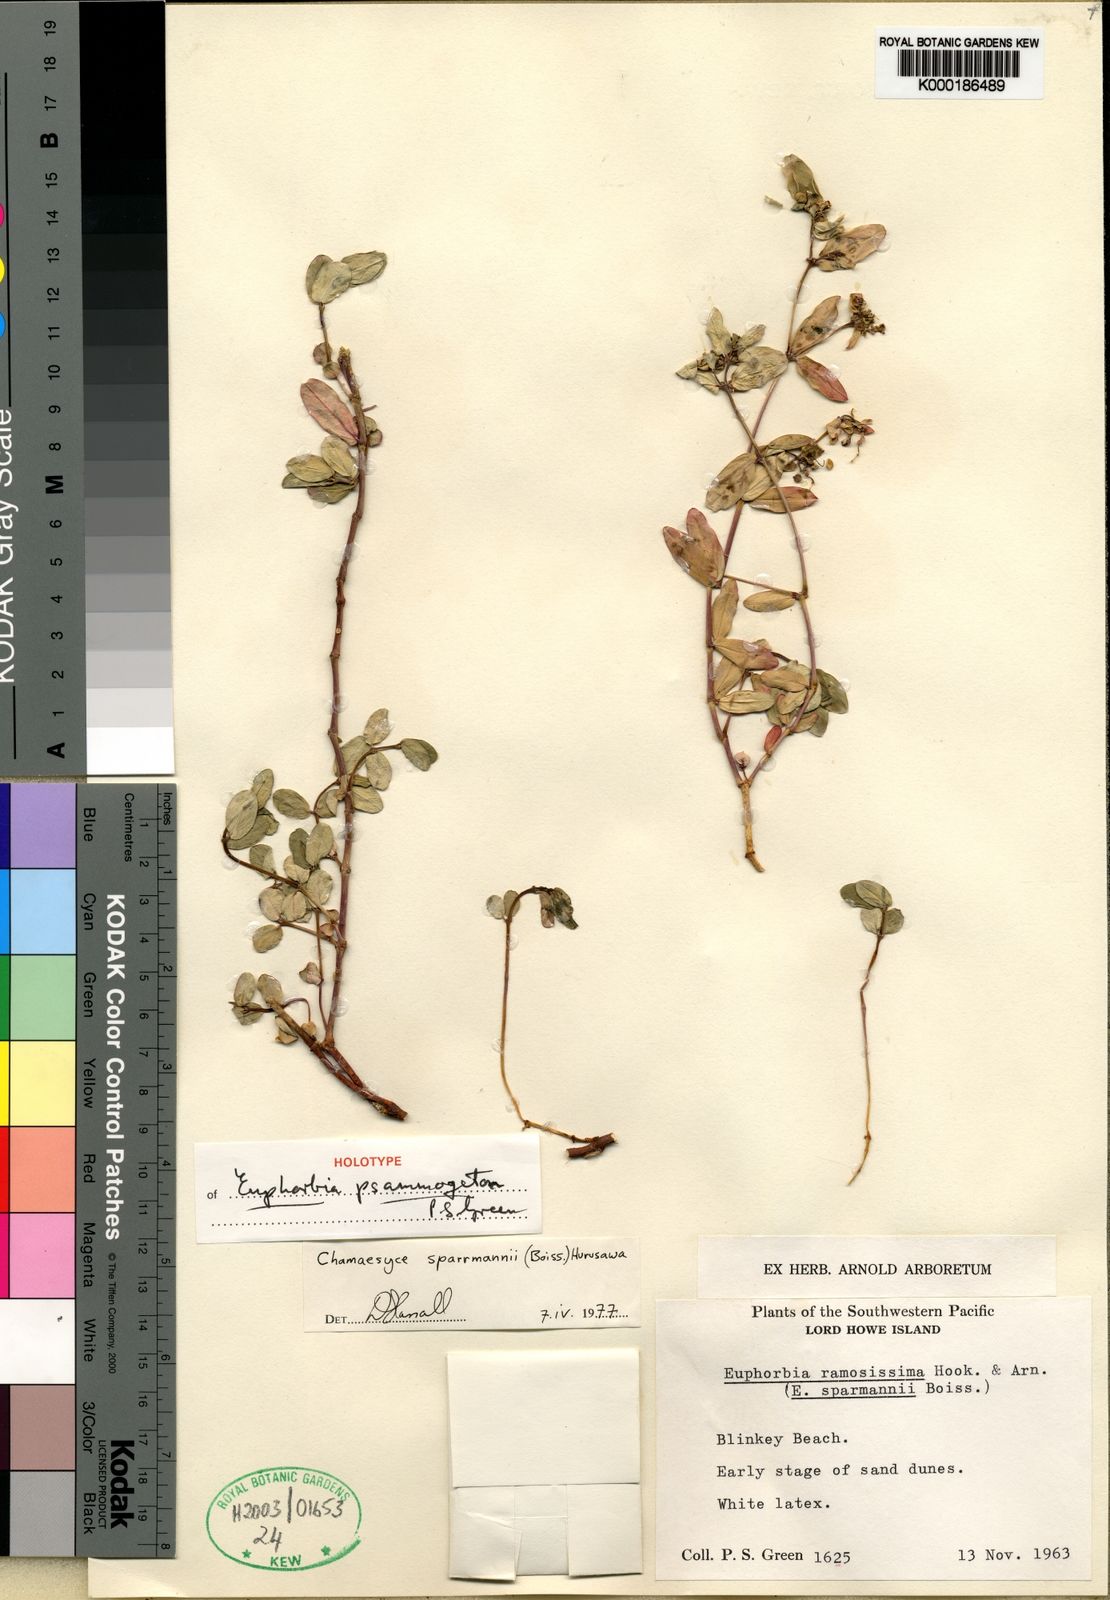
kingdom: Plantae
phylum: Tracheophyta
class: Magnoliopsida
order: Malpighiales
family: Euphorbiaceae
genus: Euphorbia
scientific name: Euphorbia psammogeton
